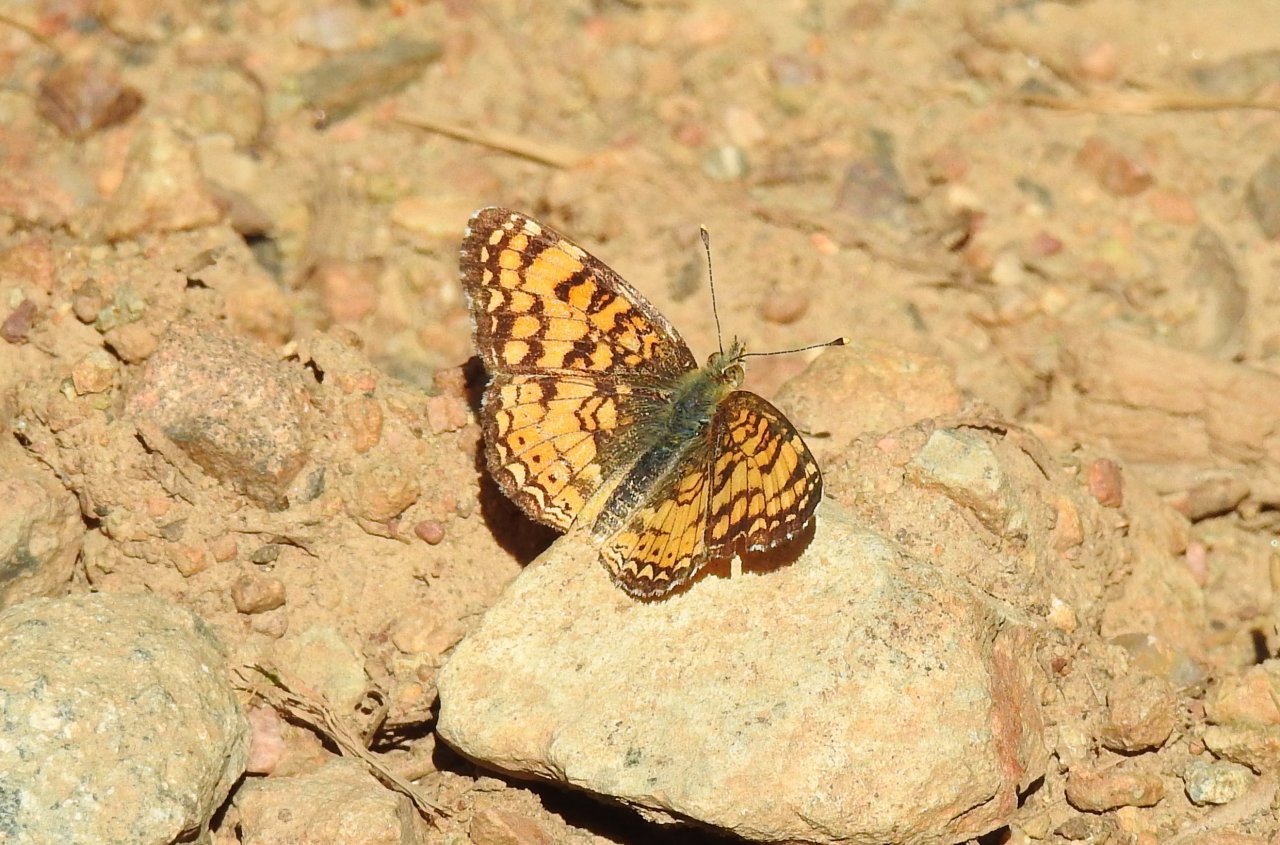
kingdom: Animalia
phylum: Arthropoda
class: Insecta
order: Lepidoptera
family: Nymphalidae
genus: Phyciodes
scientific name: Phyciodes
